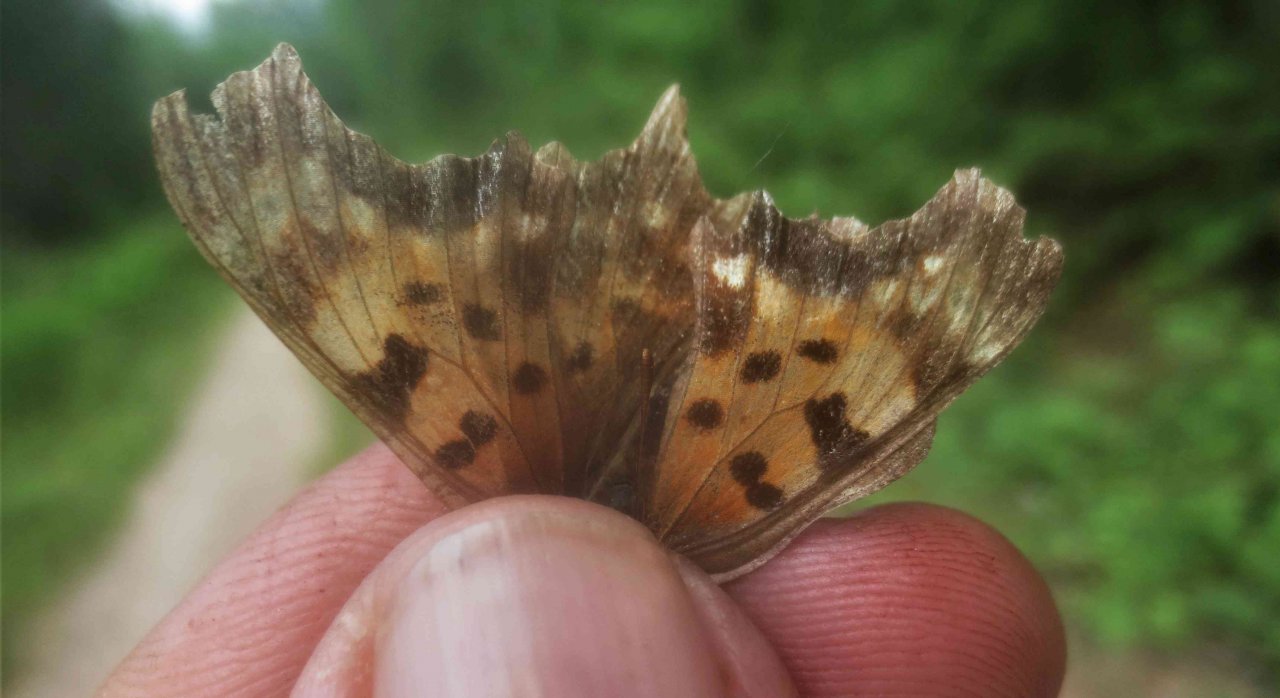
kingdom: Animalia
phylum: Arthropoda
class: Insecta
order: Lepidoptera
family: Nymphalidae
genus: Polygonia
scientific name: Polygonia comma
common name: Eastern Comma
